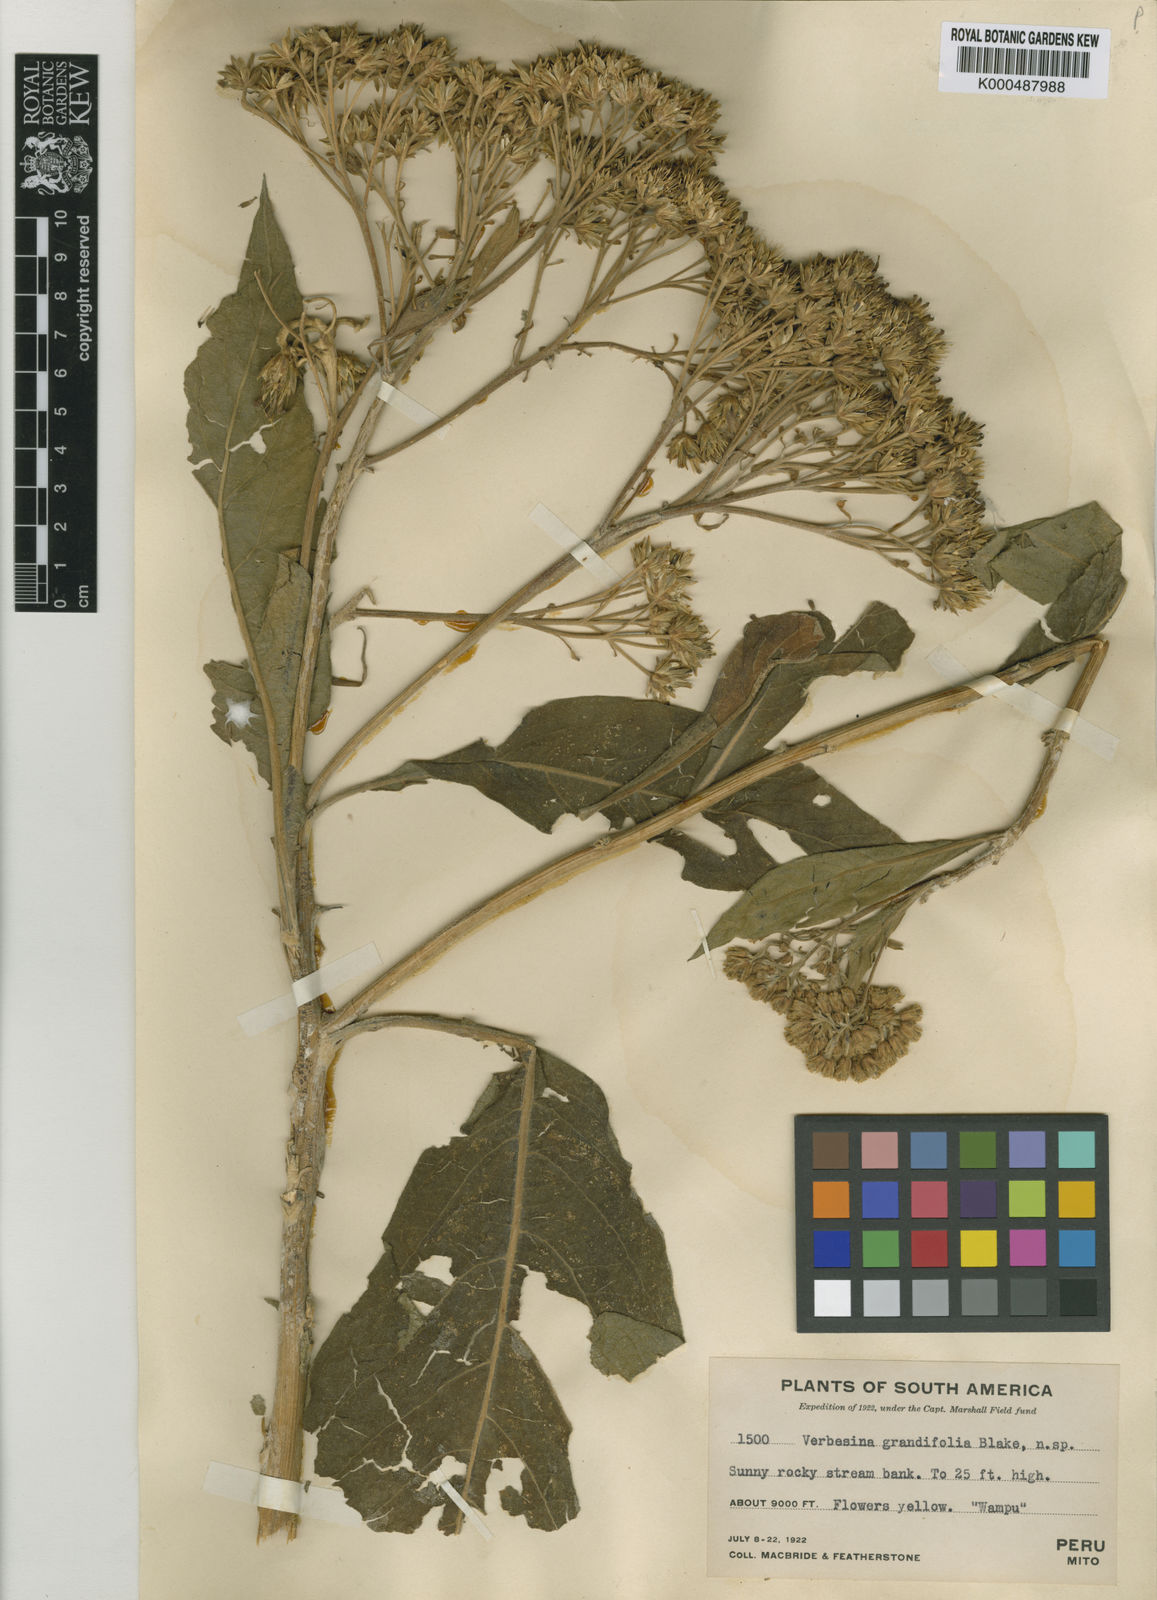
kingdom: Plantae
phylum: Tracheophyta
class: Magnoliopsida
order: Asterales
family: Asteraceae
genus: Verbesina
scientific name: Verbesina grandifolia
